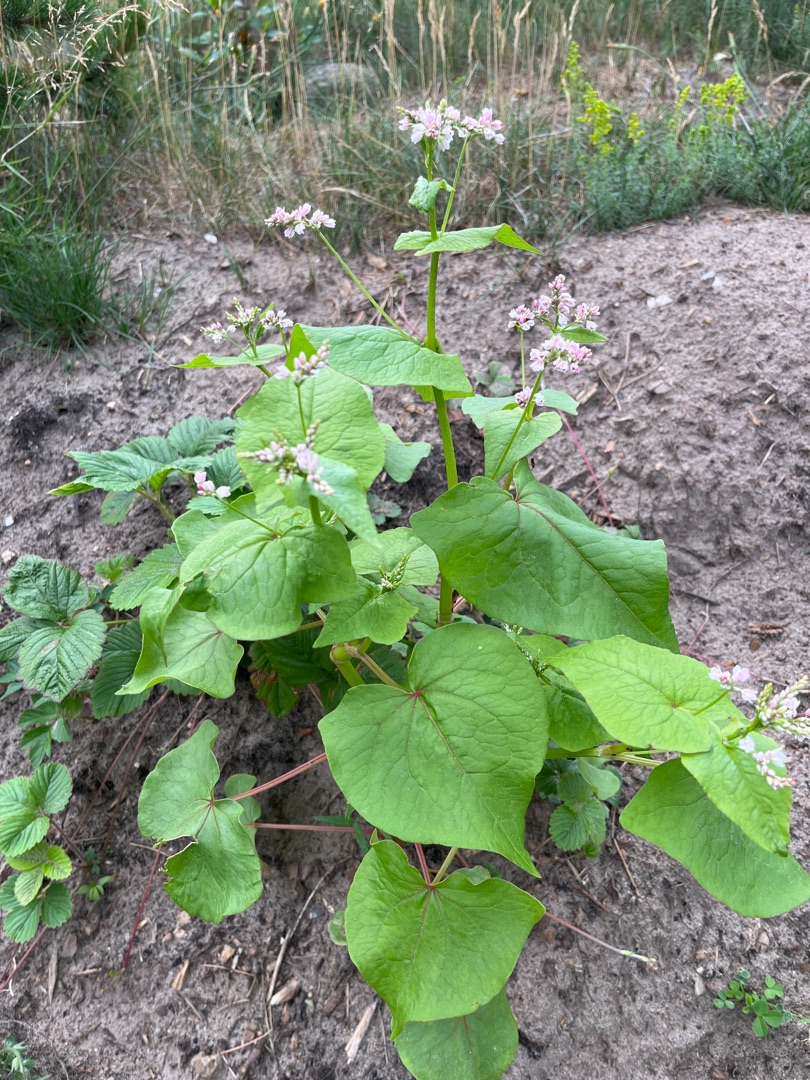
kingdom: Plantae
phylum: Tracheophyta
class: Magnoliopsida
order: Caryophyllales
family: Polygonaceae
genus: Fagopyrum
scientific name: Fagopyrum esculentum
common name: Almindelig boghvede
